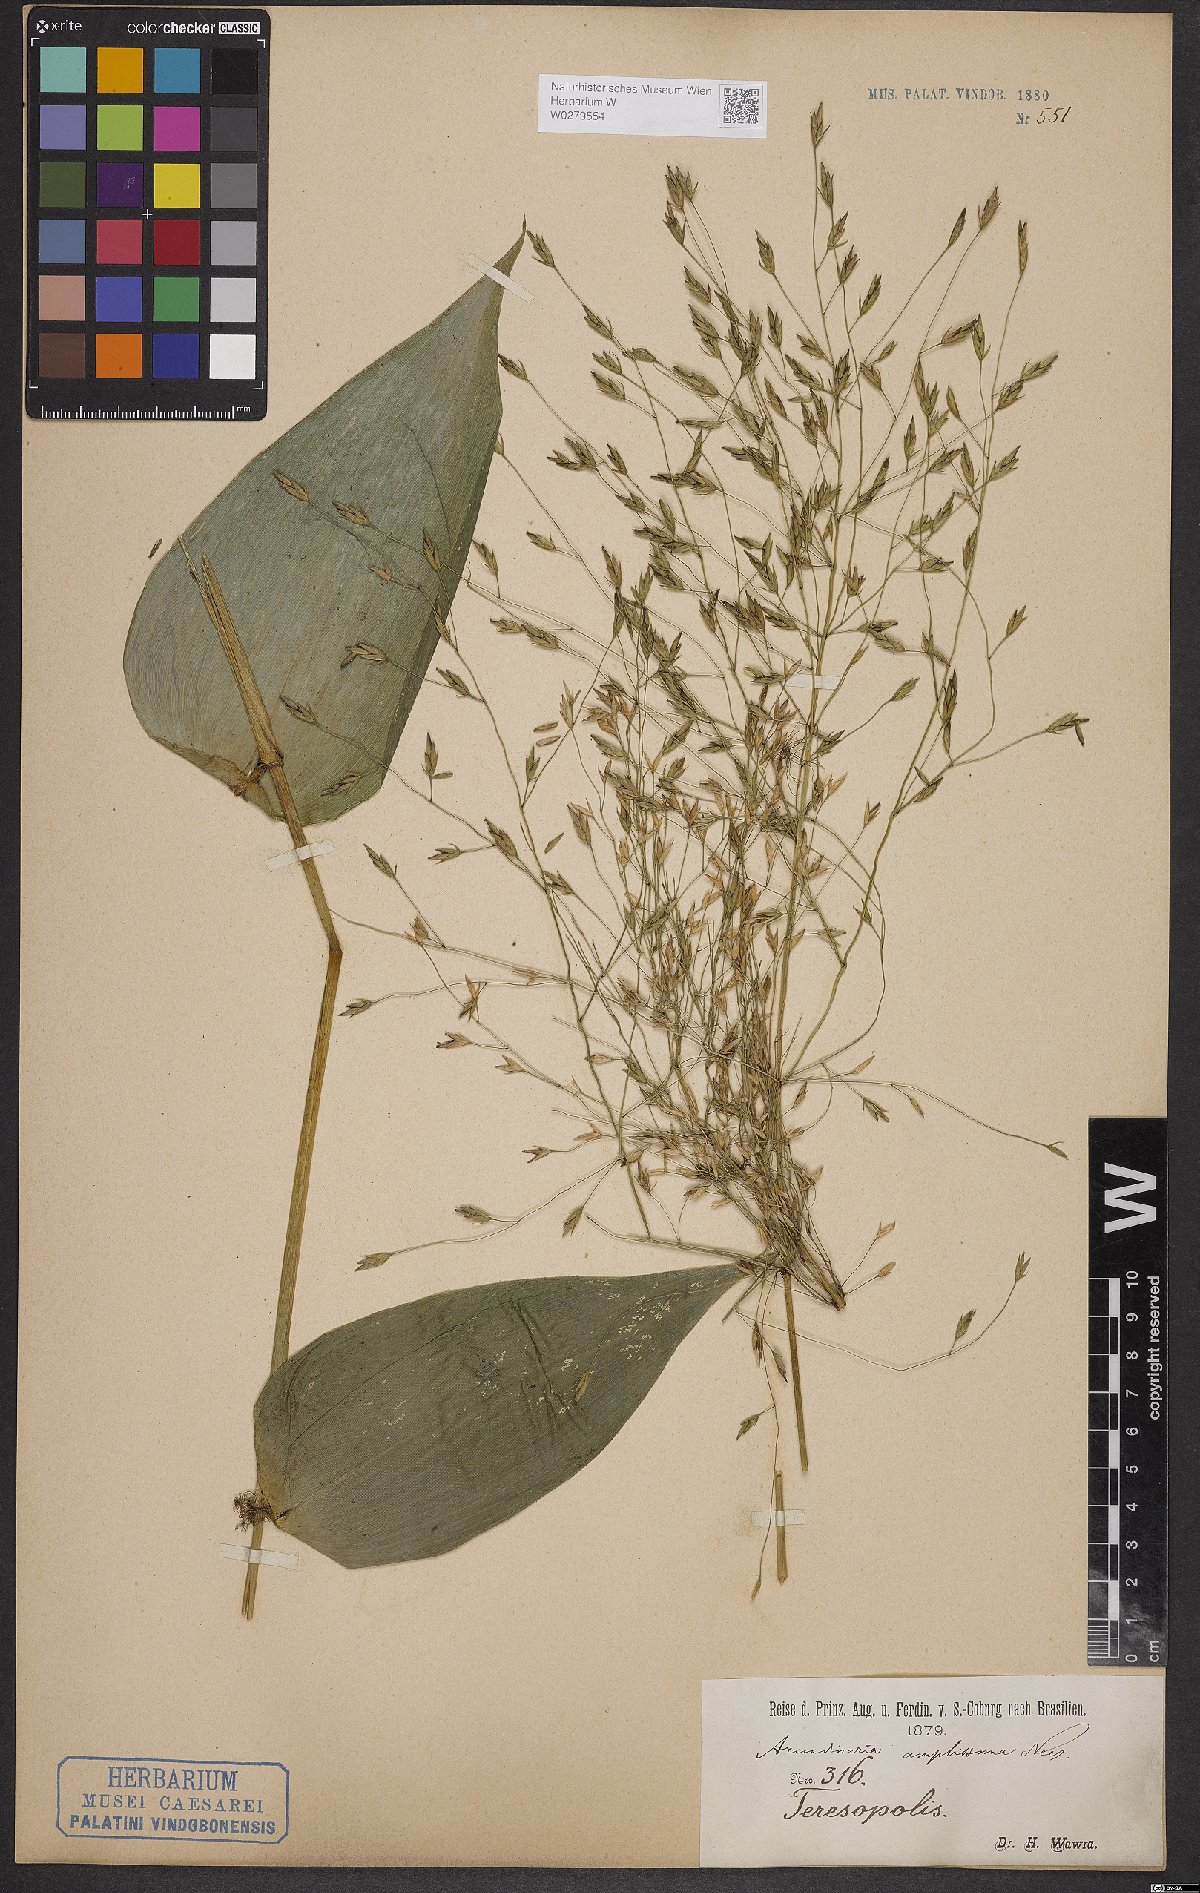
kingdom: Plantae
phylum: Tracheophyta
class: Liliopsida
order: Poales
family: Poaceae
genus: Aulonemia
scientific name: Aulonemia amplissima
